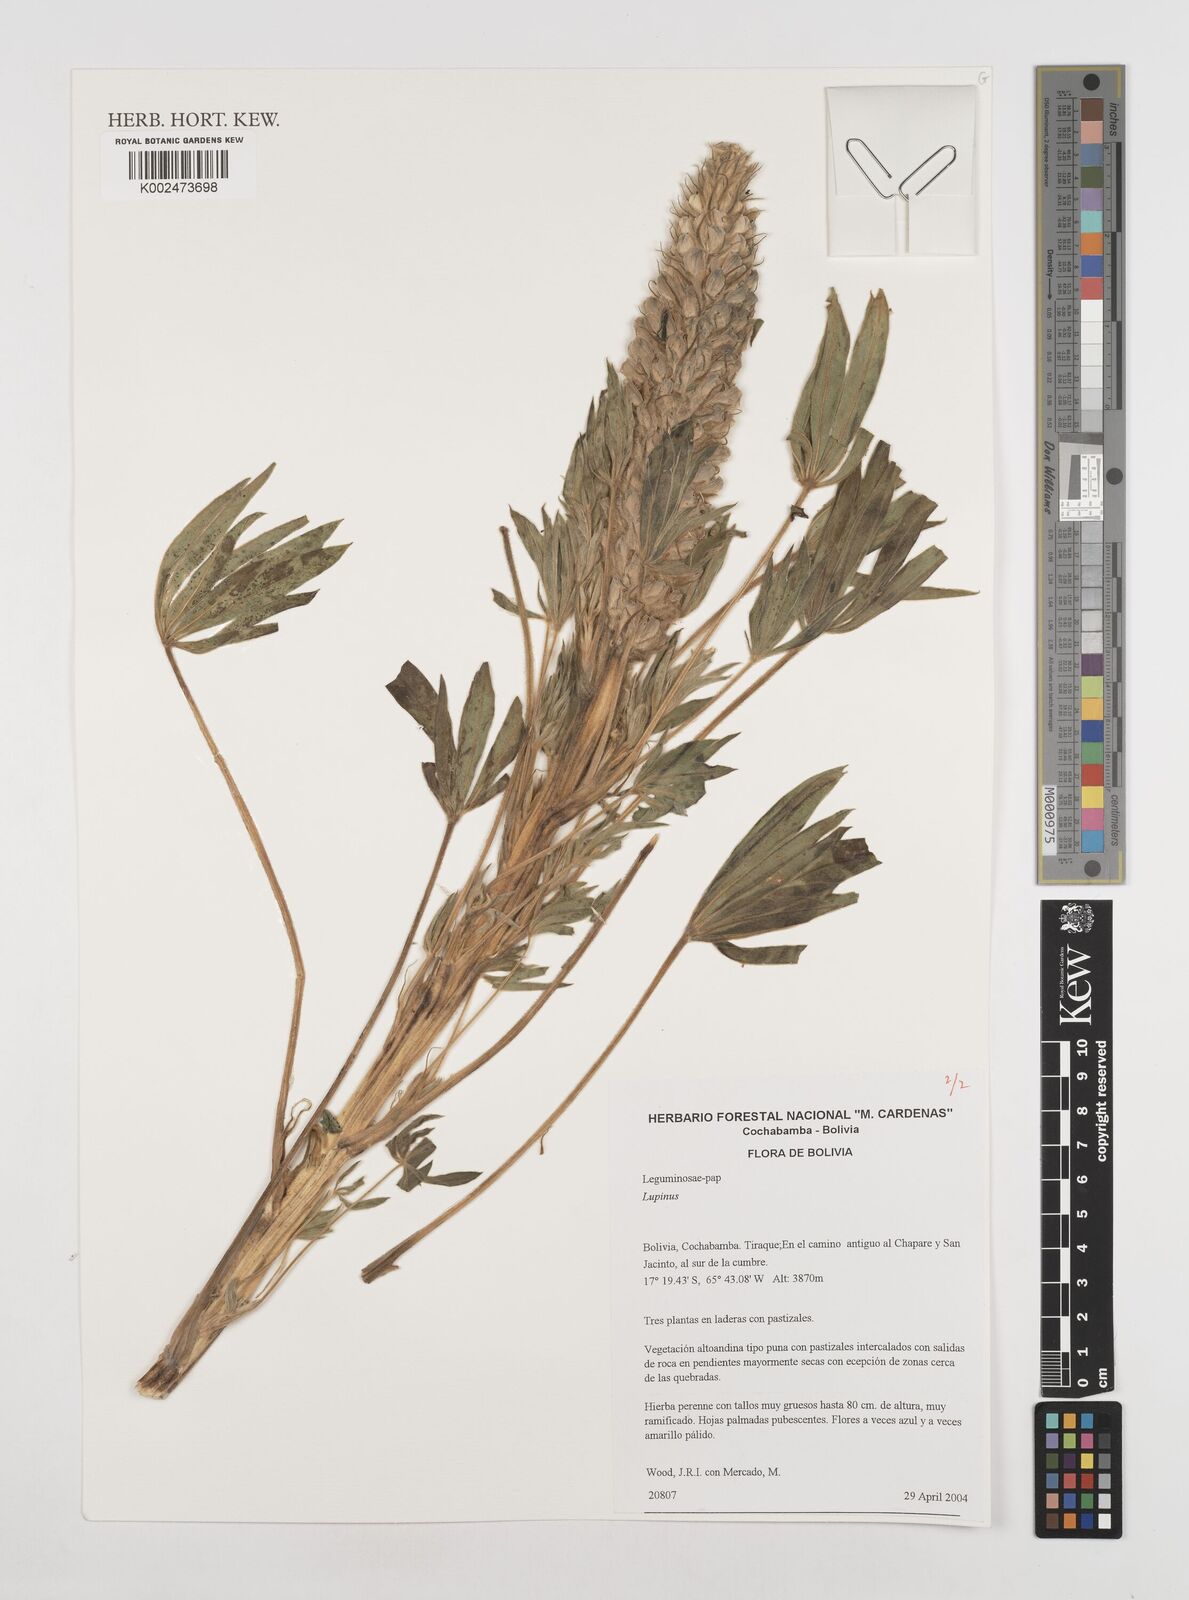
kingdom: Plantae
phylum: Tracheophyta
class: Magnoliopsida
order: Fabales
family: Fabaceae
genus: Lupinus
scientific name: Lupinus
